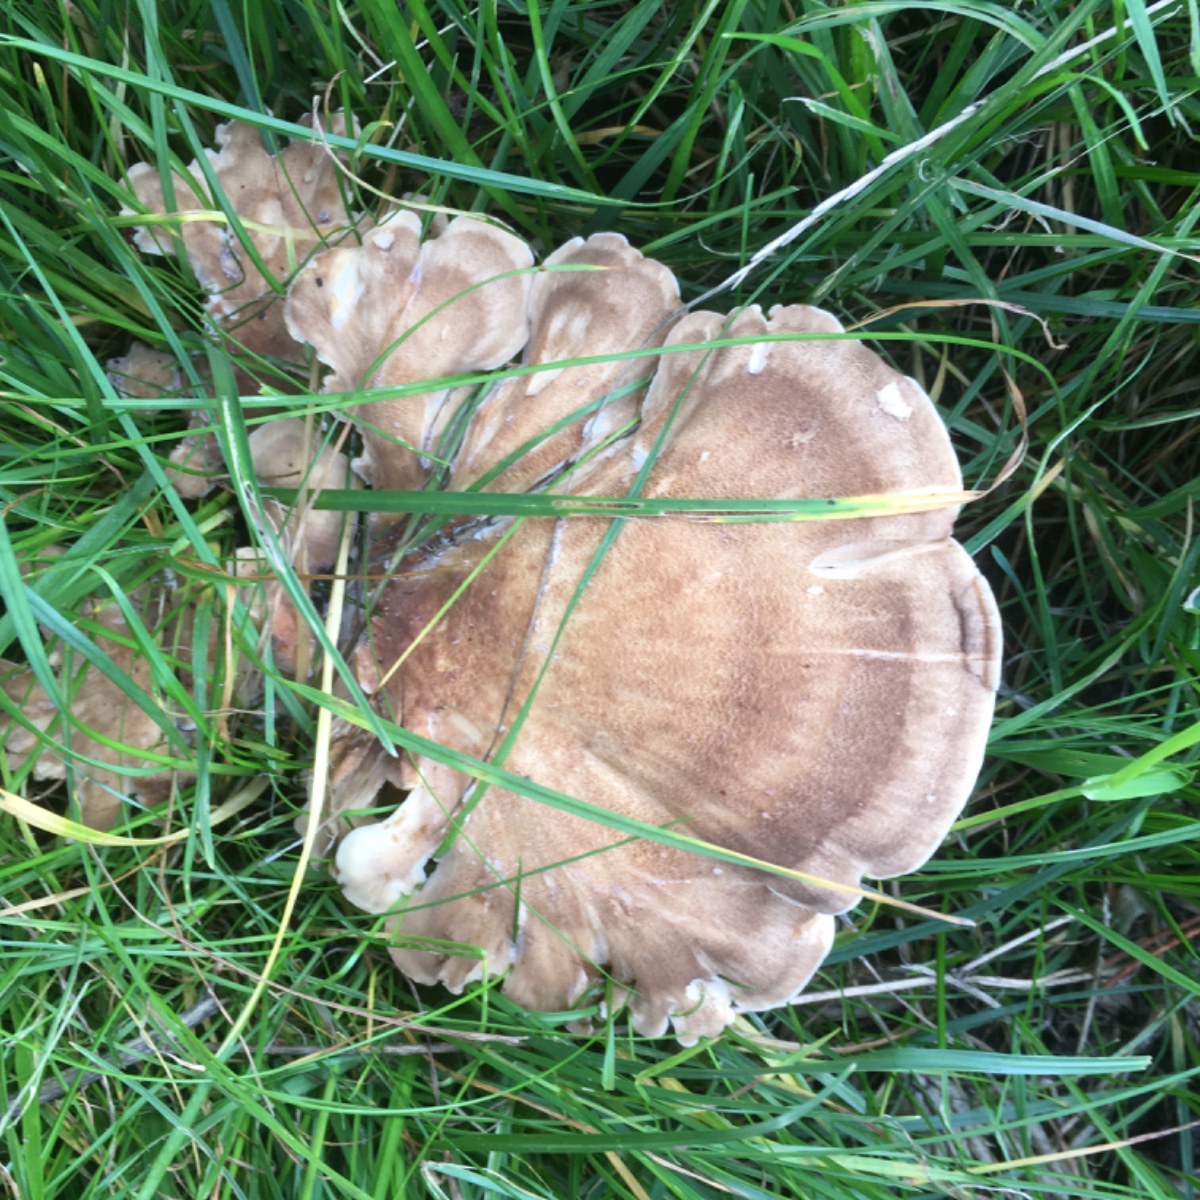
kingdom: Fungi
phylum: Basidiomycota
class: Agaricomycetes
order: Polyporales
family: Meripilaceae
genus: Meripilus
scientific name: Meripilus giganteus
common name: kæmpeporesvamp
